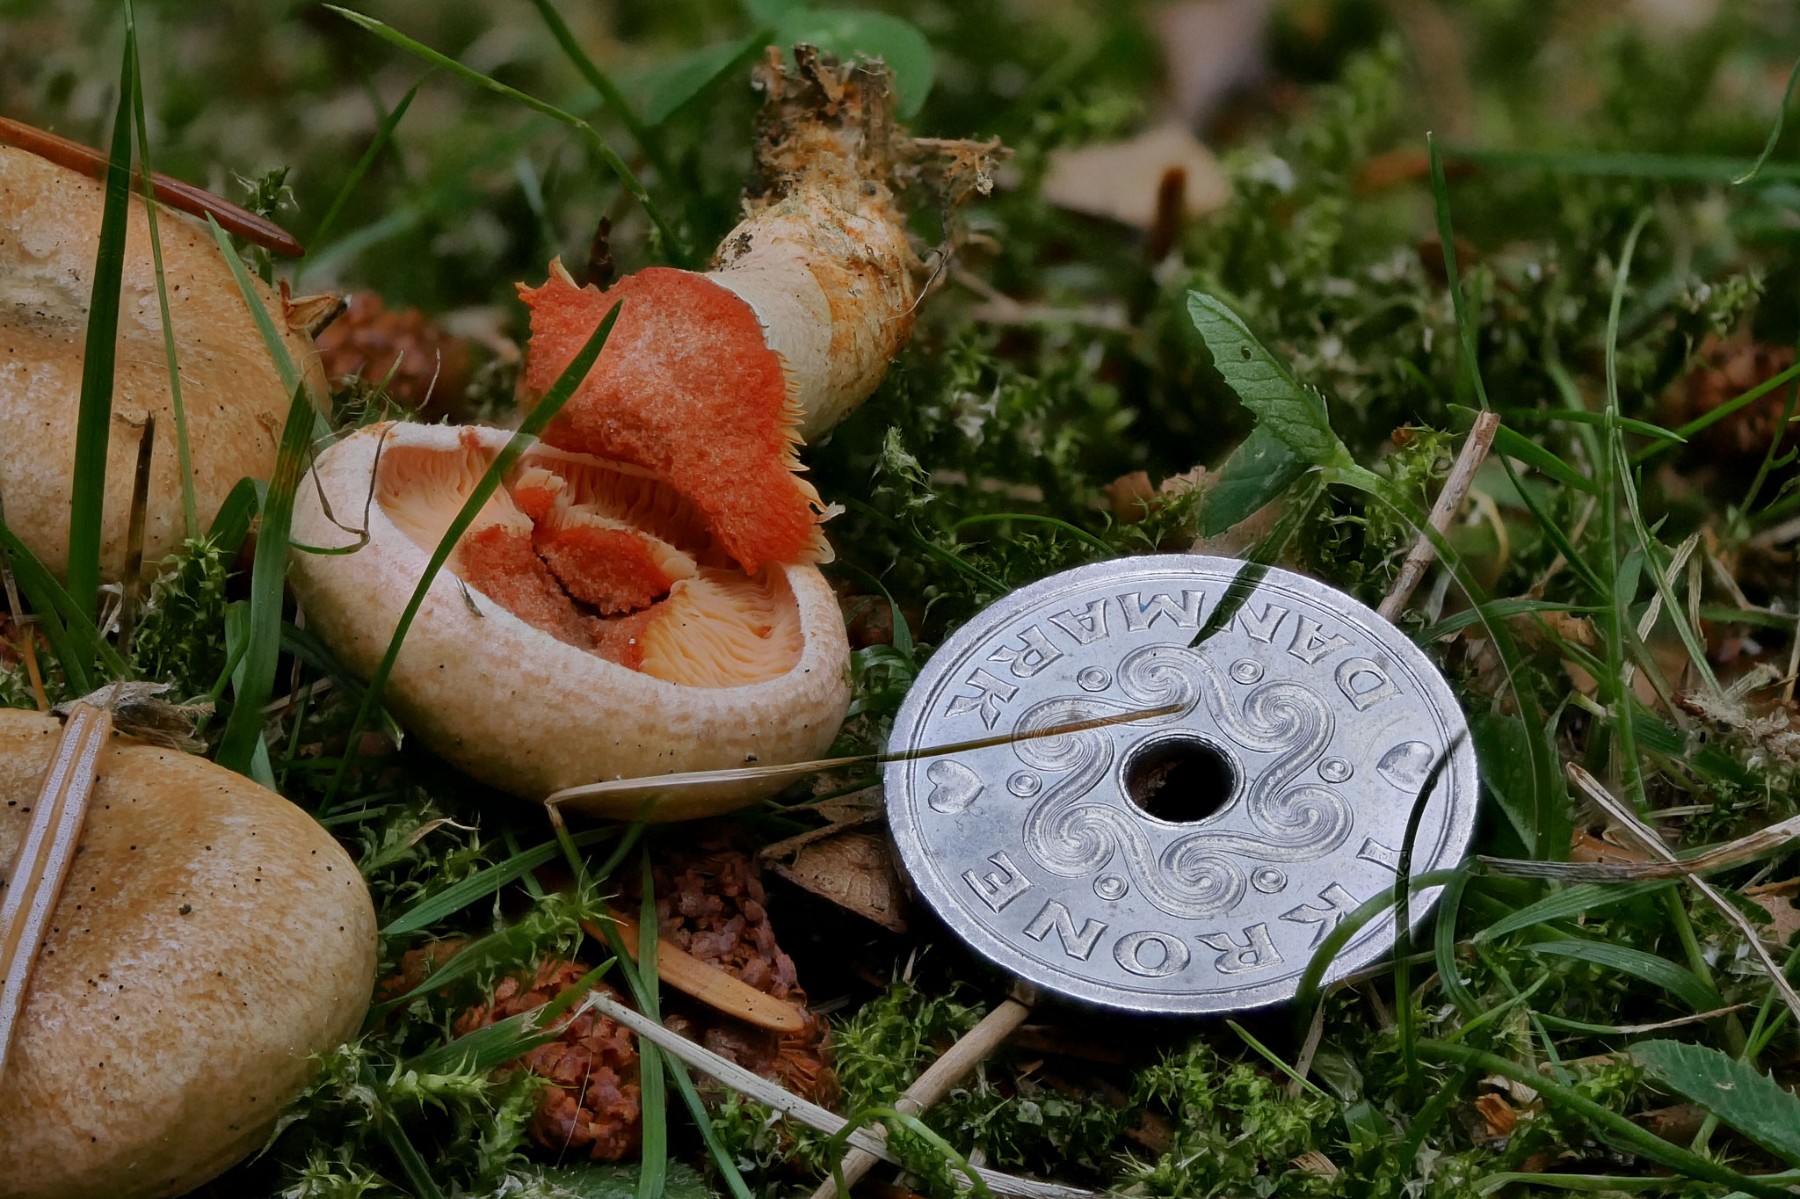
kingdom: Fungi
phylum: Basidiomycota
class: Agaricomycetes
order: Russulales
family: Russulaceae
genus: Lactarius
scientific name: Lactarius deterrimus
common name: gran-mælkehat
